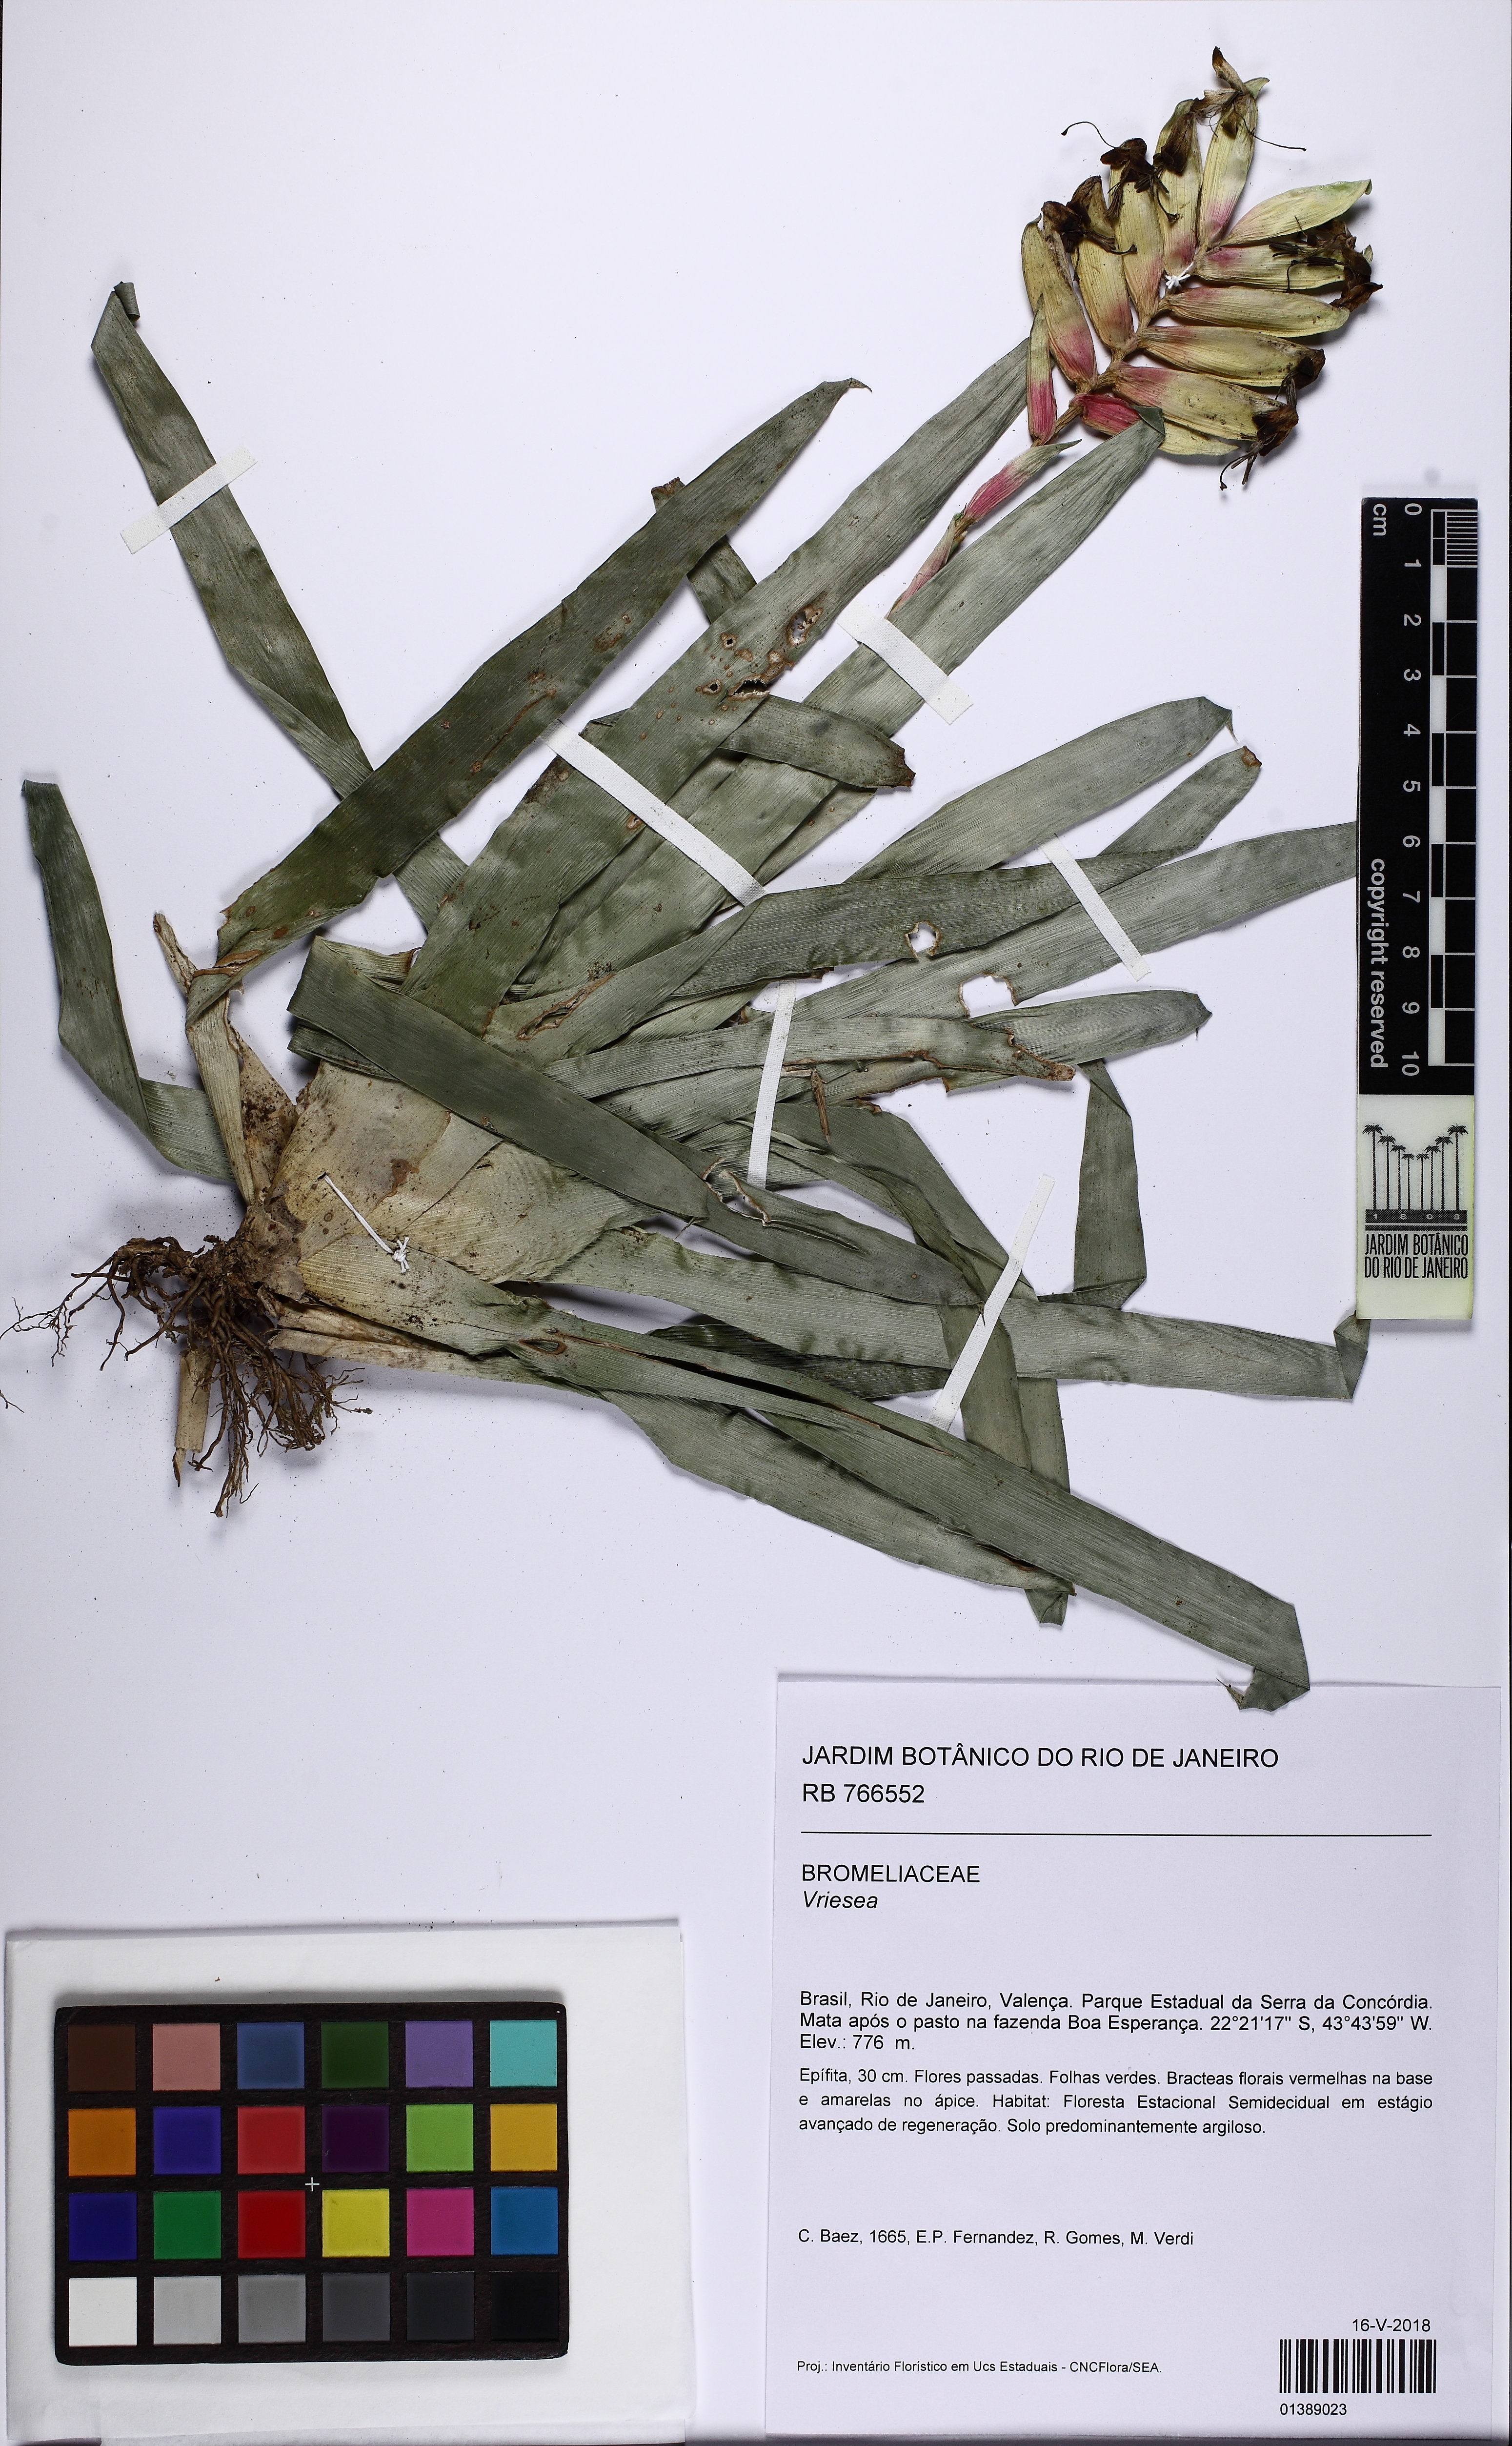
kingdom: Plantae
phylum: Tracheophyta
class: Liliopsida
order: Poales
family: Bromeliaceae
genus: Vriesea
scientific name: Vriesea carinata
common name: Lobster-claws
